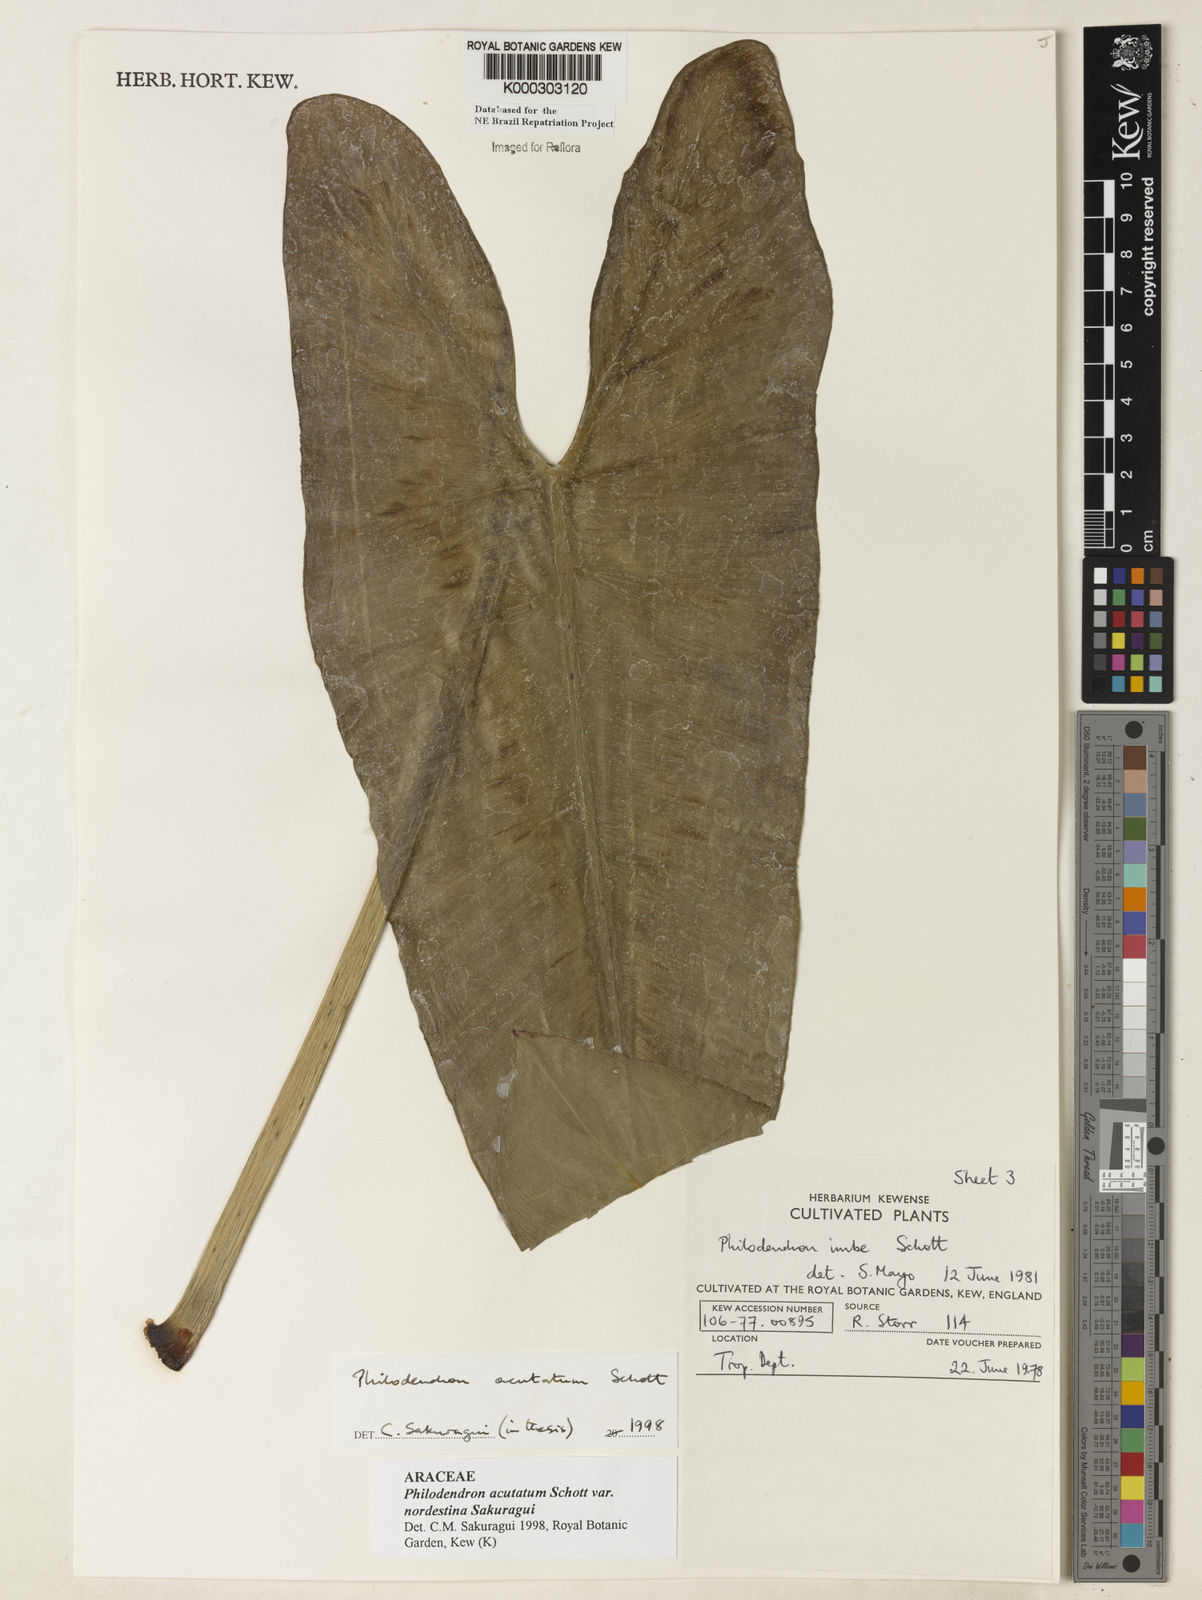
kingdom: Plantae
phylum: Tracheophyta
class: Liliopsida
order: Alismatales
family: Araceae
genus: Philodendron
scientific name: Philodendron quinquenervium
